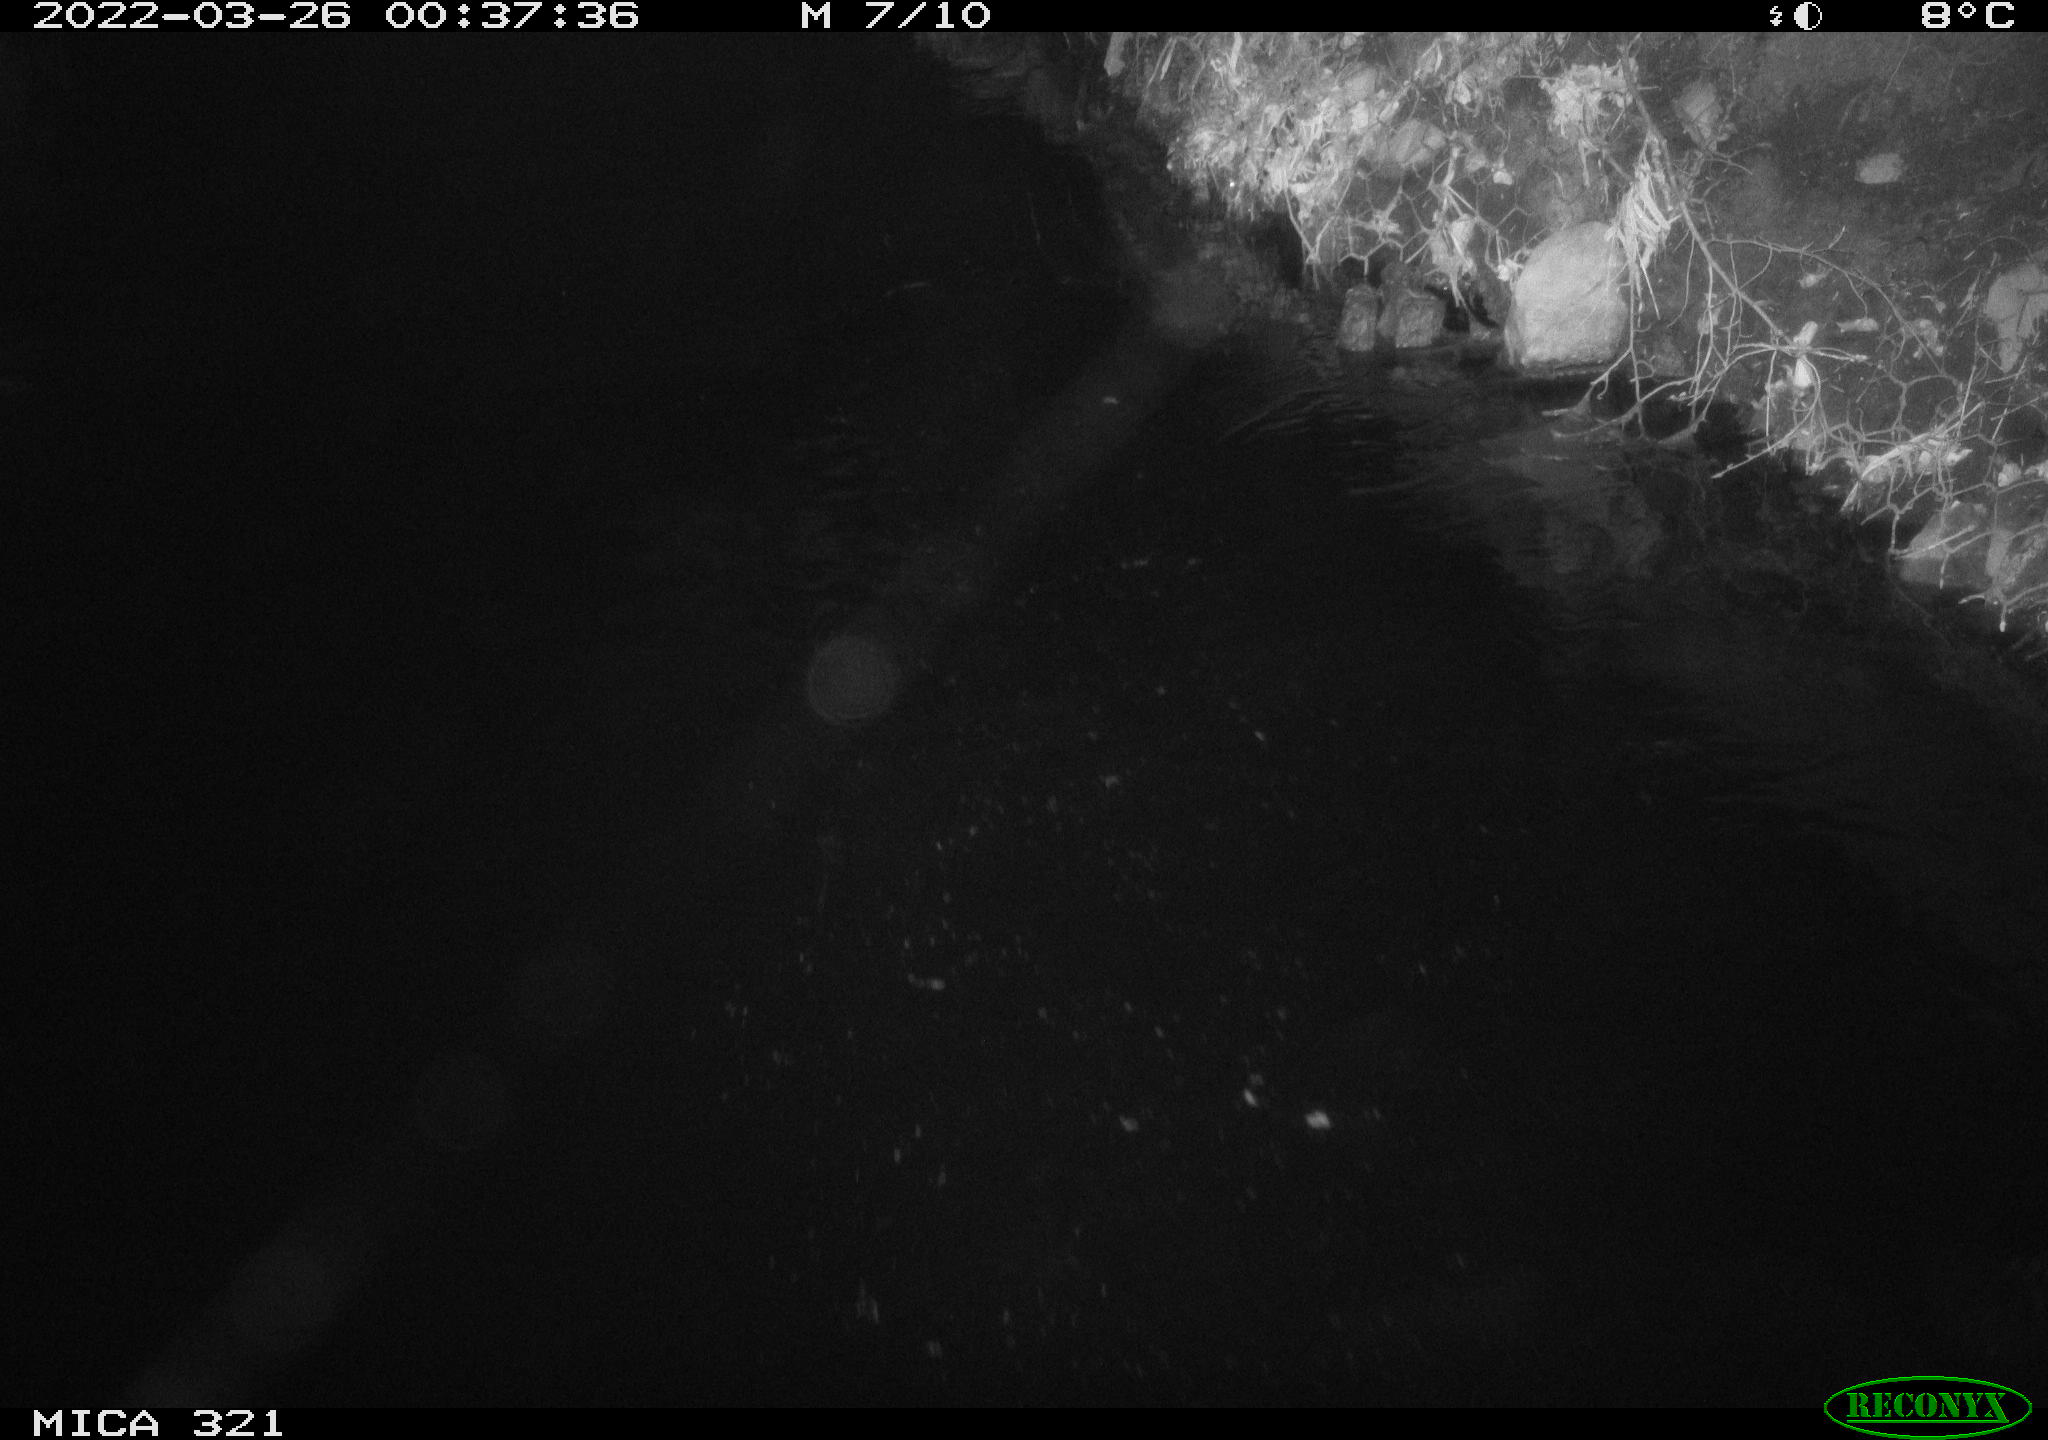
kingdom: Animalia
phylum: Chordata
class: Aves
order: Anseriformes
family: Anatidae
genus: Anas
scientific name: Anas platyrhynchos
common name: Mallard
